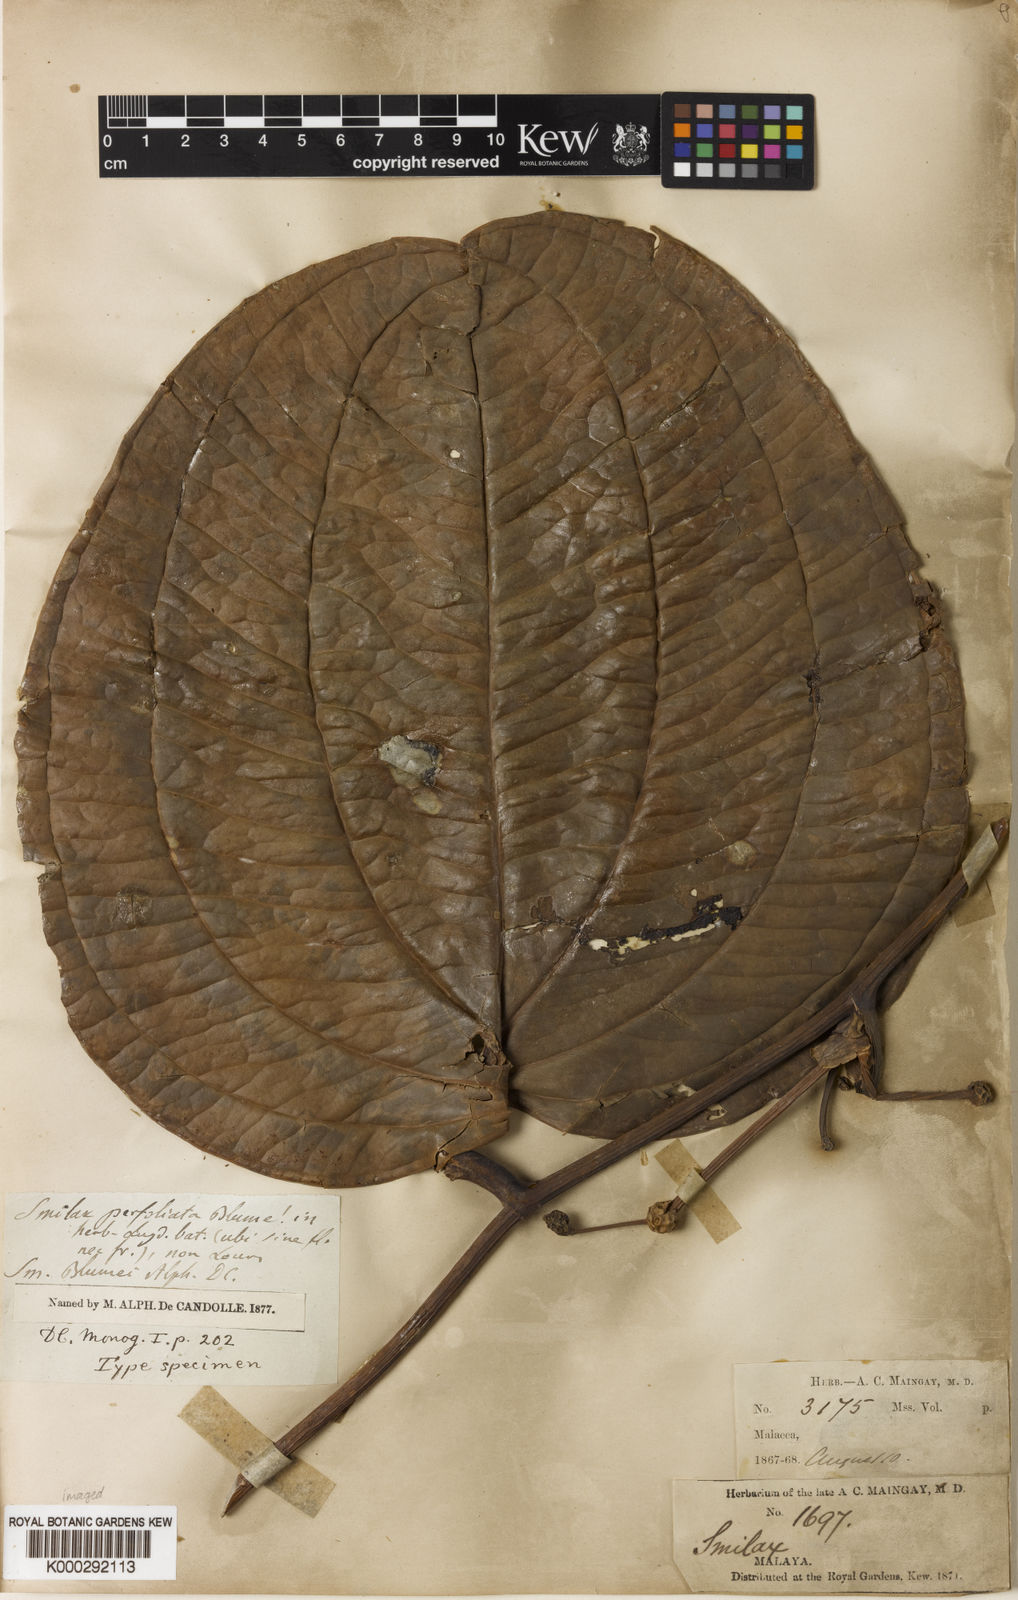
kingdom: Plantae
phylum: Tracheophyta
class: Liliopsida
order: Liliales
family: Smilacaceae
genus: Smilax
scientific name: Smilax blumei
